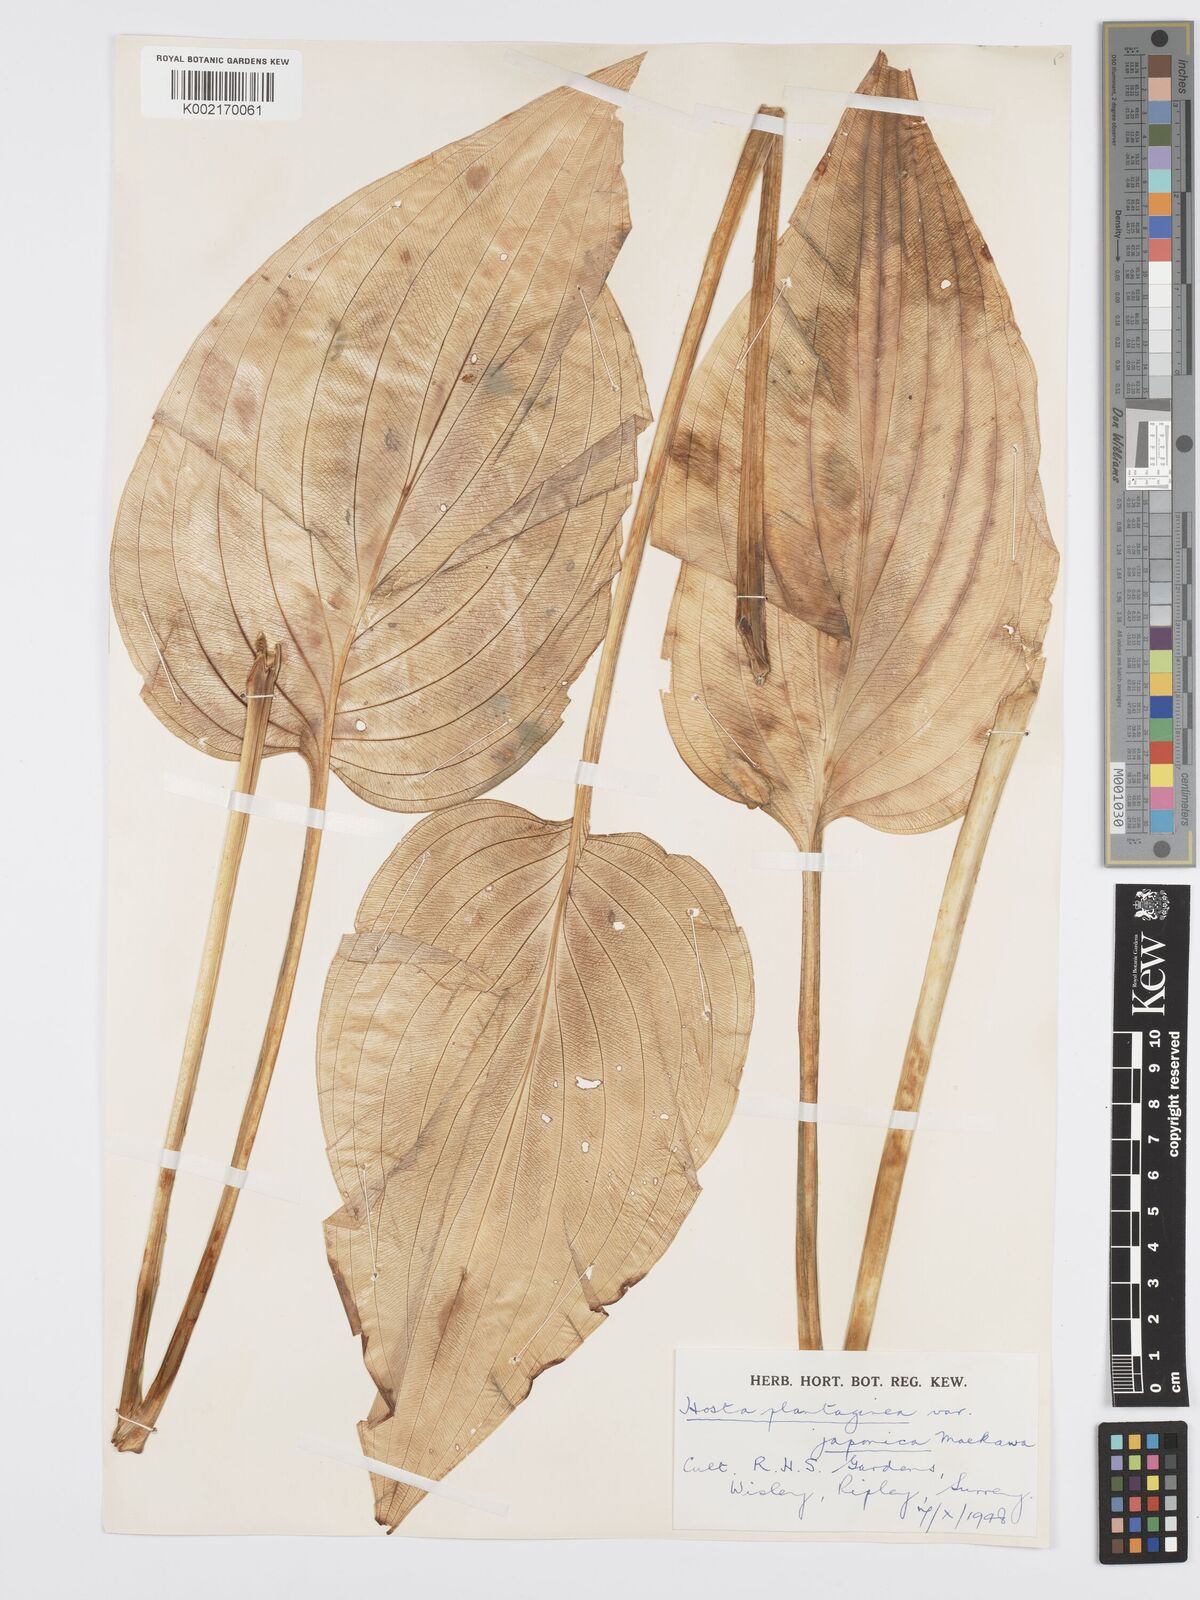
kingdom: Plantae
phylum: Tracheophyta
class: Liliopsida
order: Asparagales
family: Asparagaceae
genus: Hosta
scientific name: Hosta plantaginea
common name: August-lily
